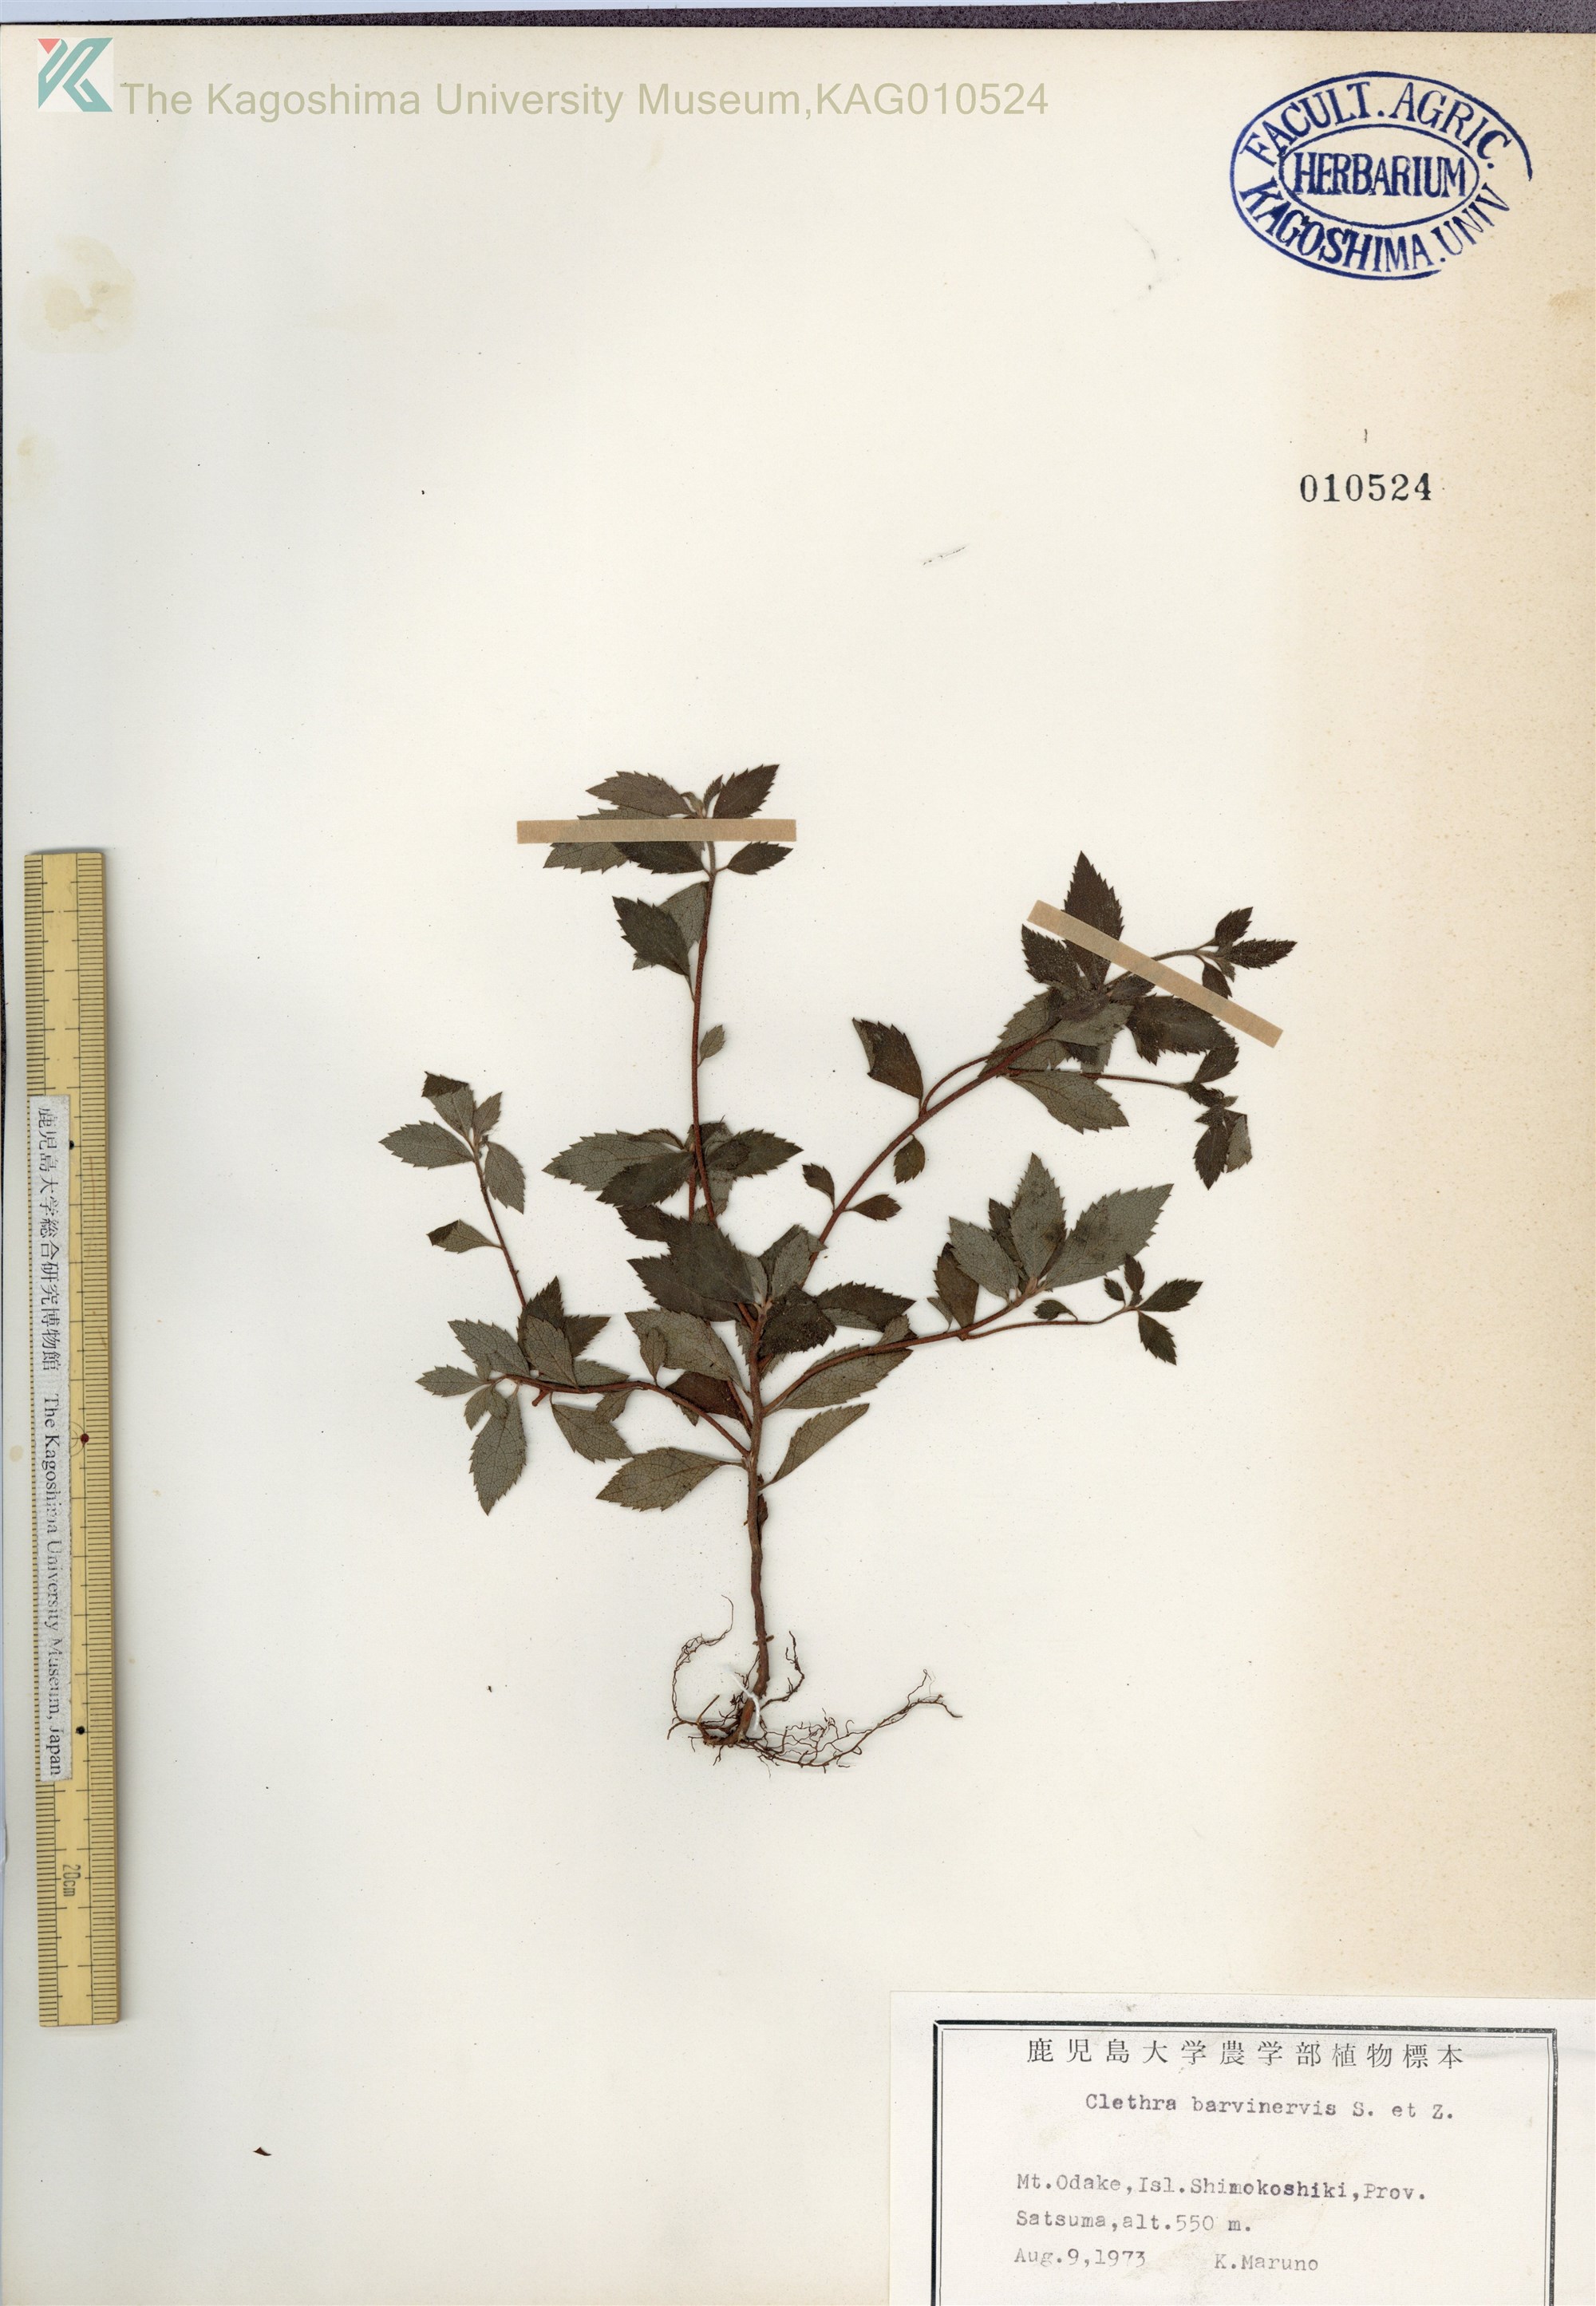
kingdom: Plantae
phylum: Tracheophyta
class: Magnoliopsida
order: Ericales
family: Clethraceae
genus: Clethra
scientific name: Clethra barbinervis
